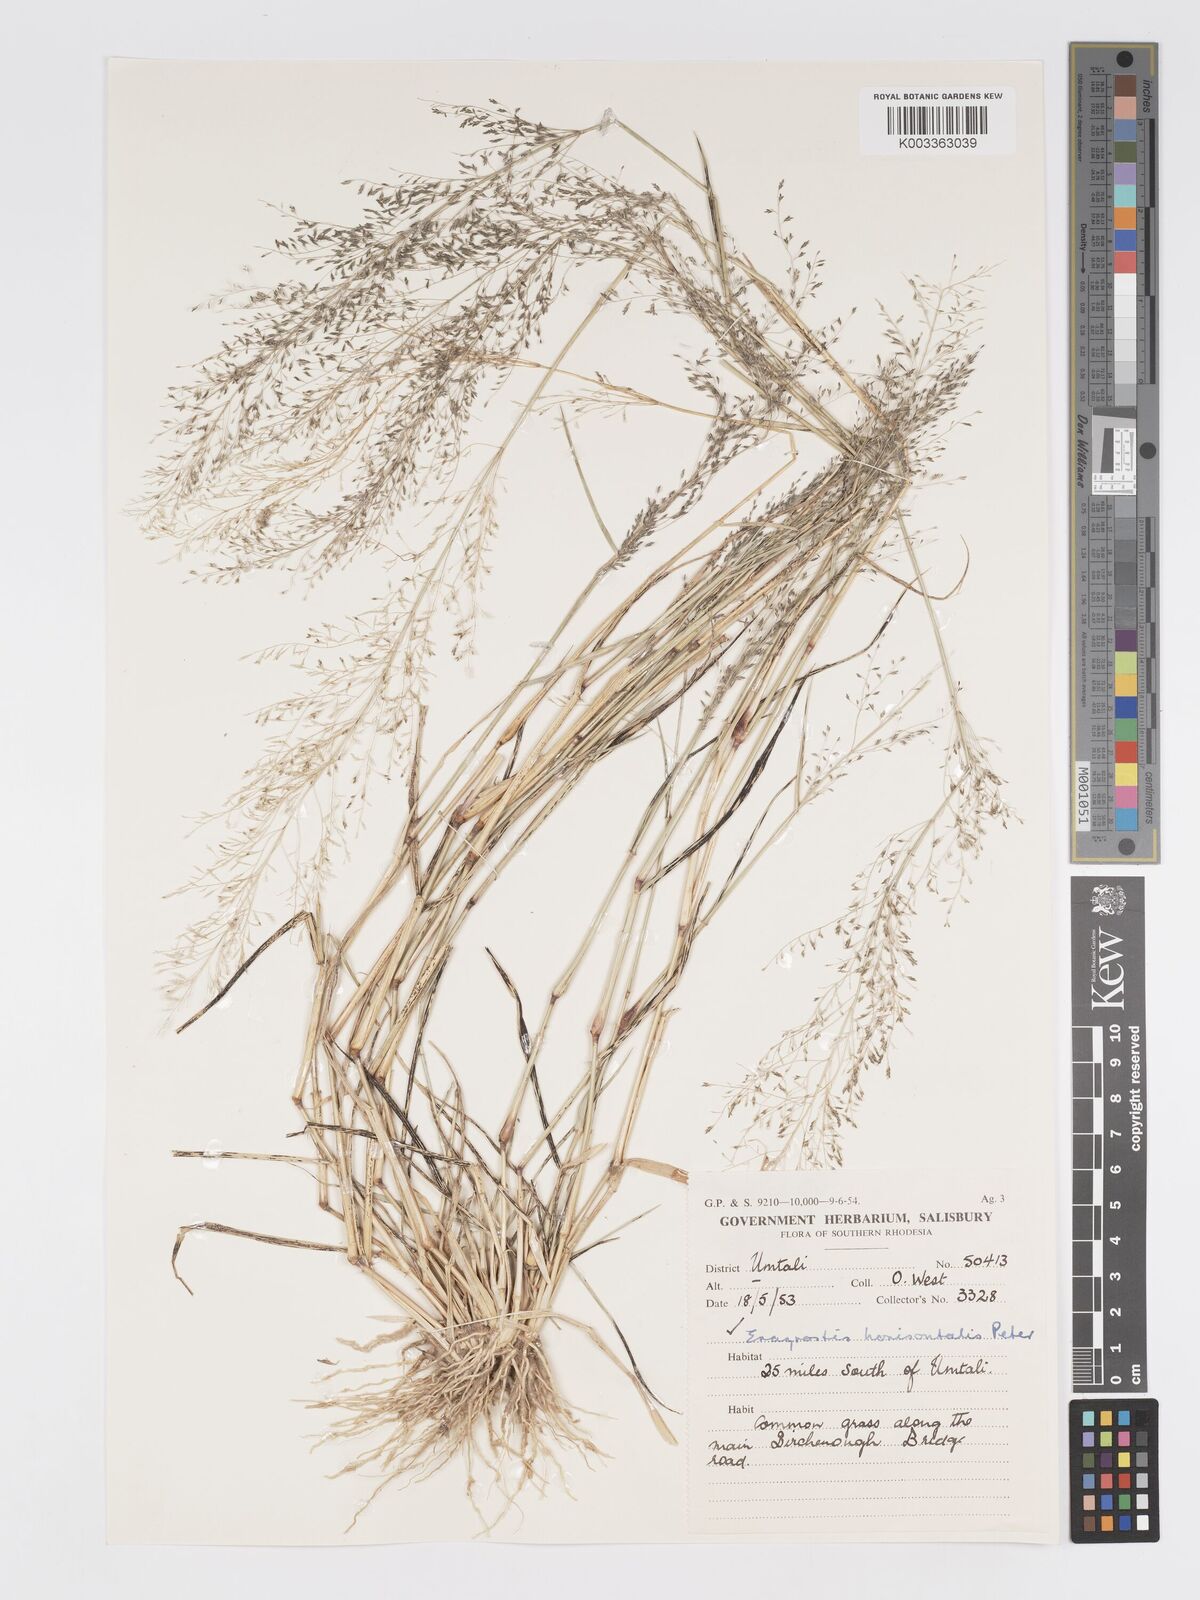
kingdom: Plantae
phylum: Tracheophyta
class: Liliopsida
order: Poales
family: Poaceae
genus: Eragrostis
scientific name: Eragrostis cylindriflora
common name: Cylinderflower lovegrass
